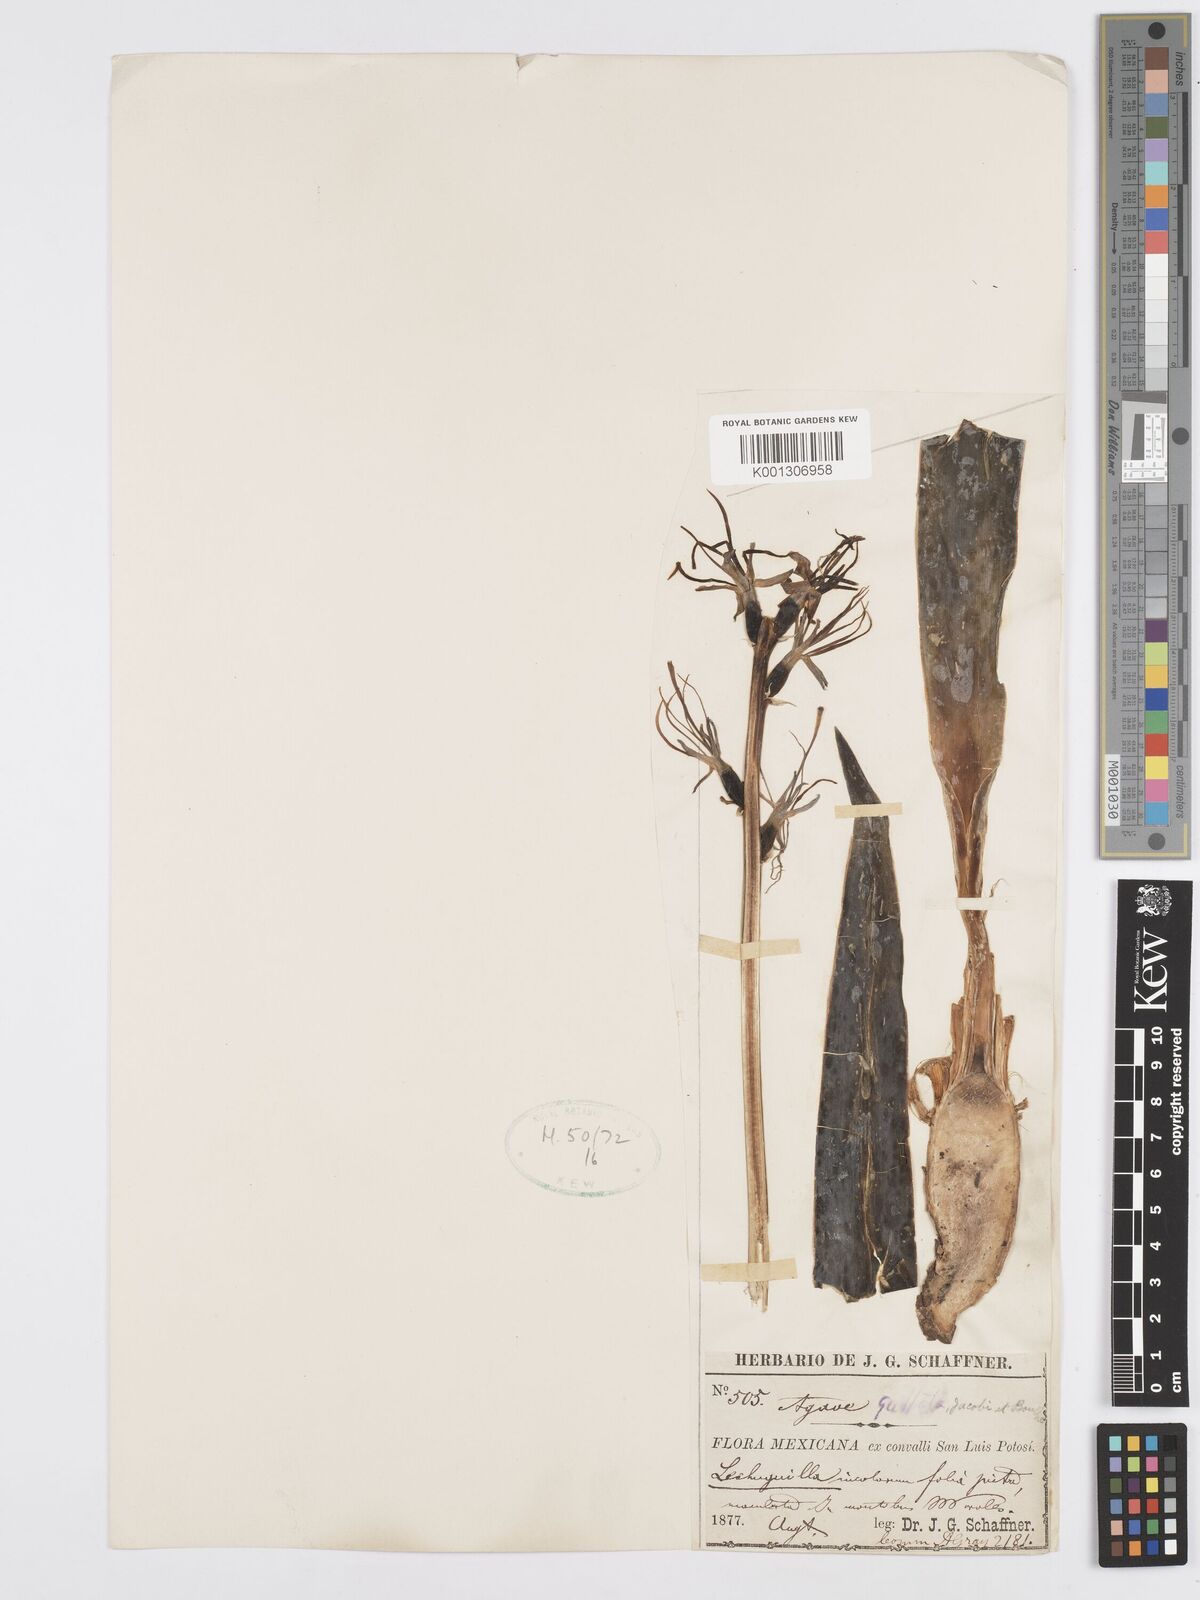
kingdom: Plantae
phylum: Tracheophyta
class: Liliopsida
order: Asparagales
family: Asparagaceae
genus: Agave
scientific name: Agave guttata
